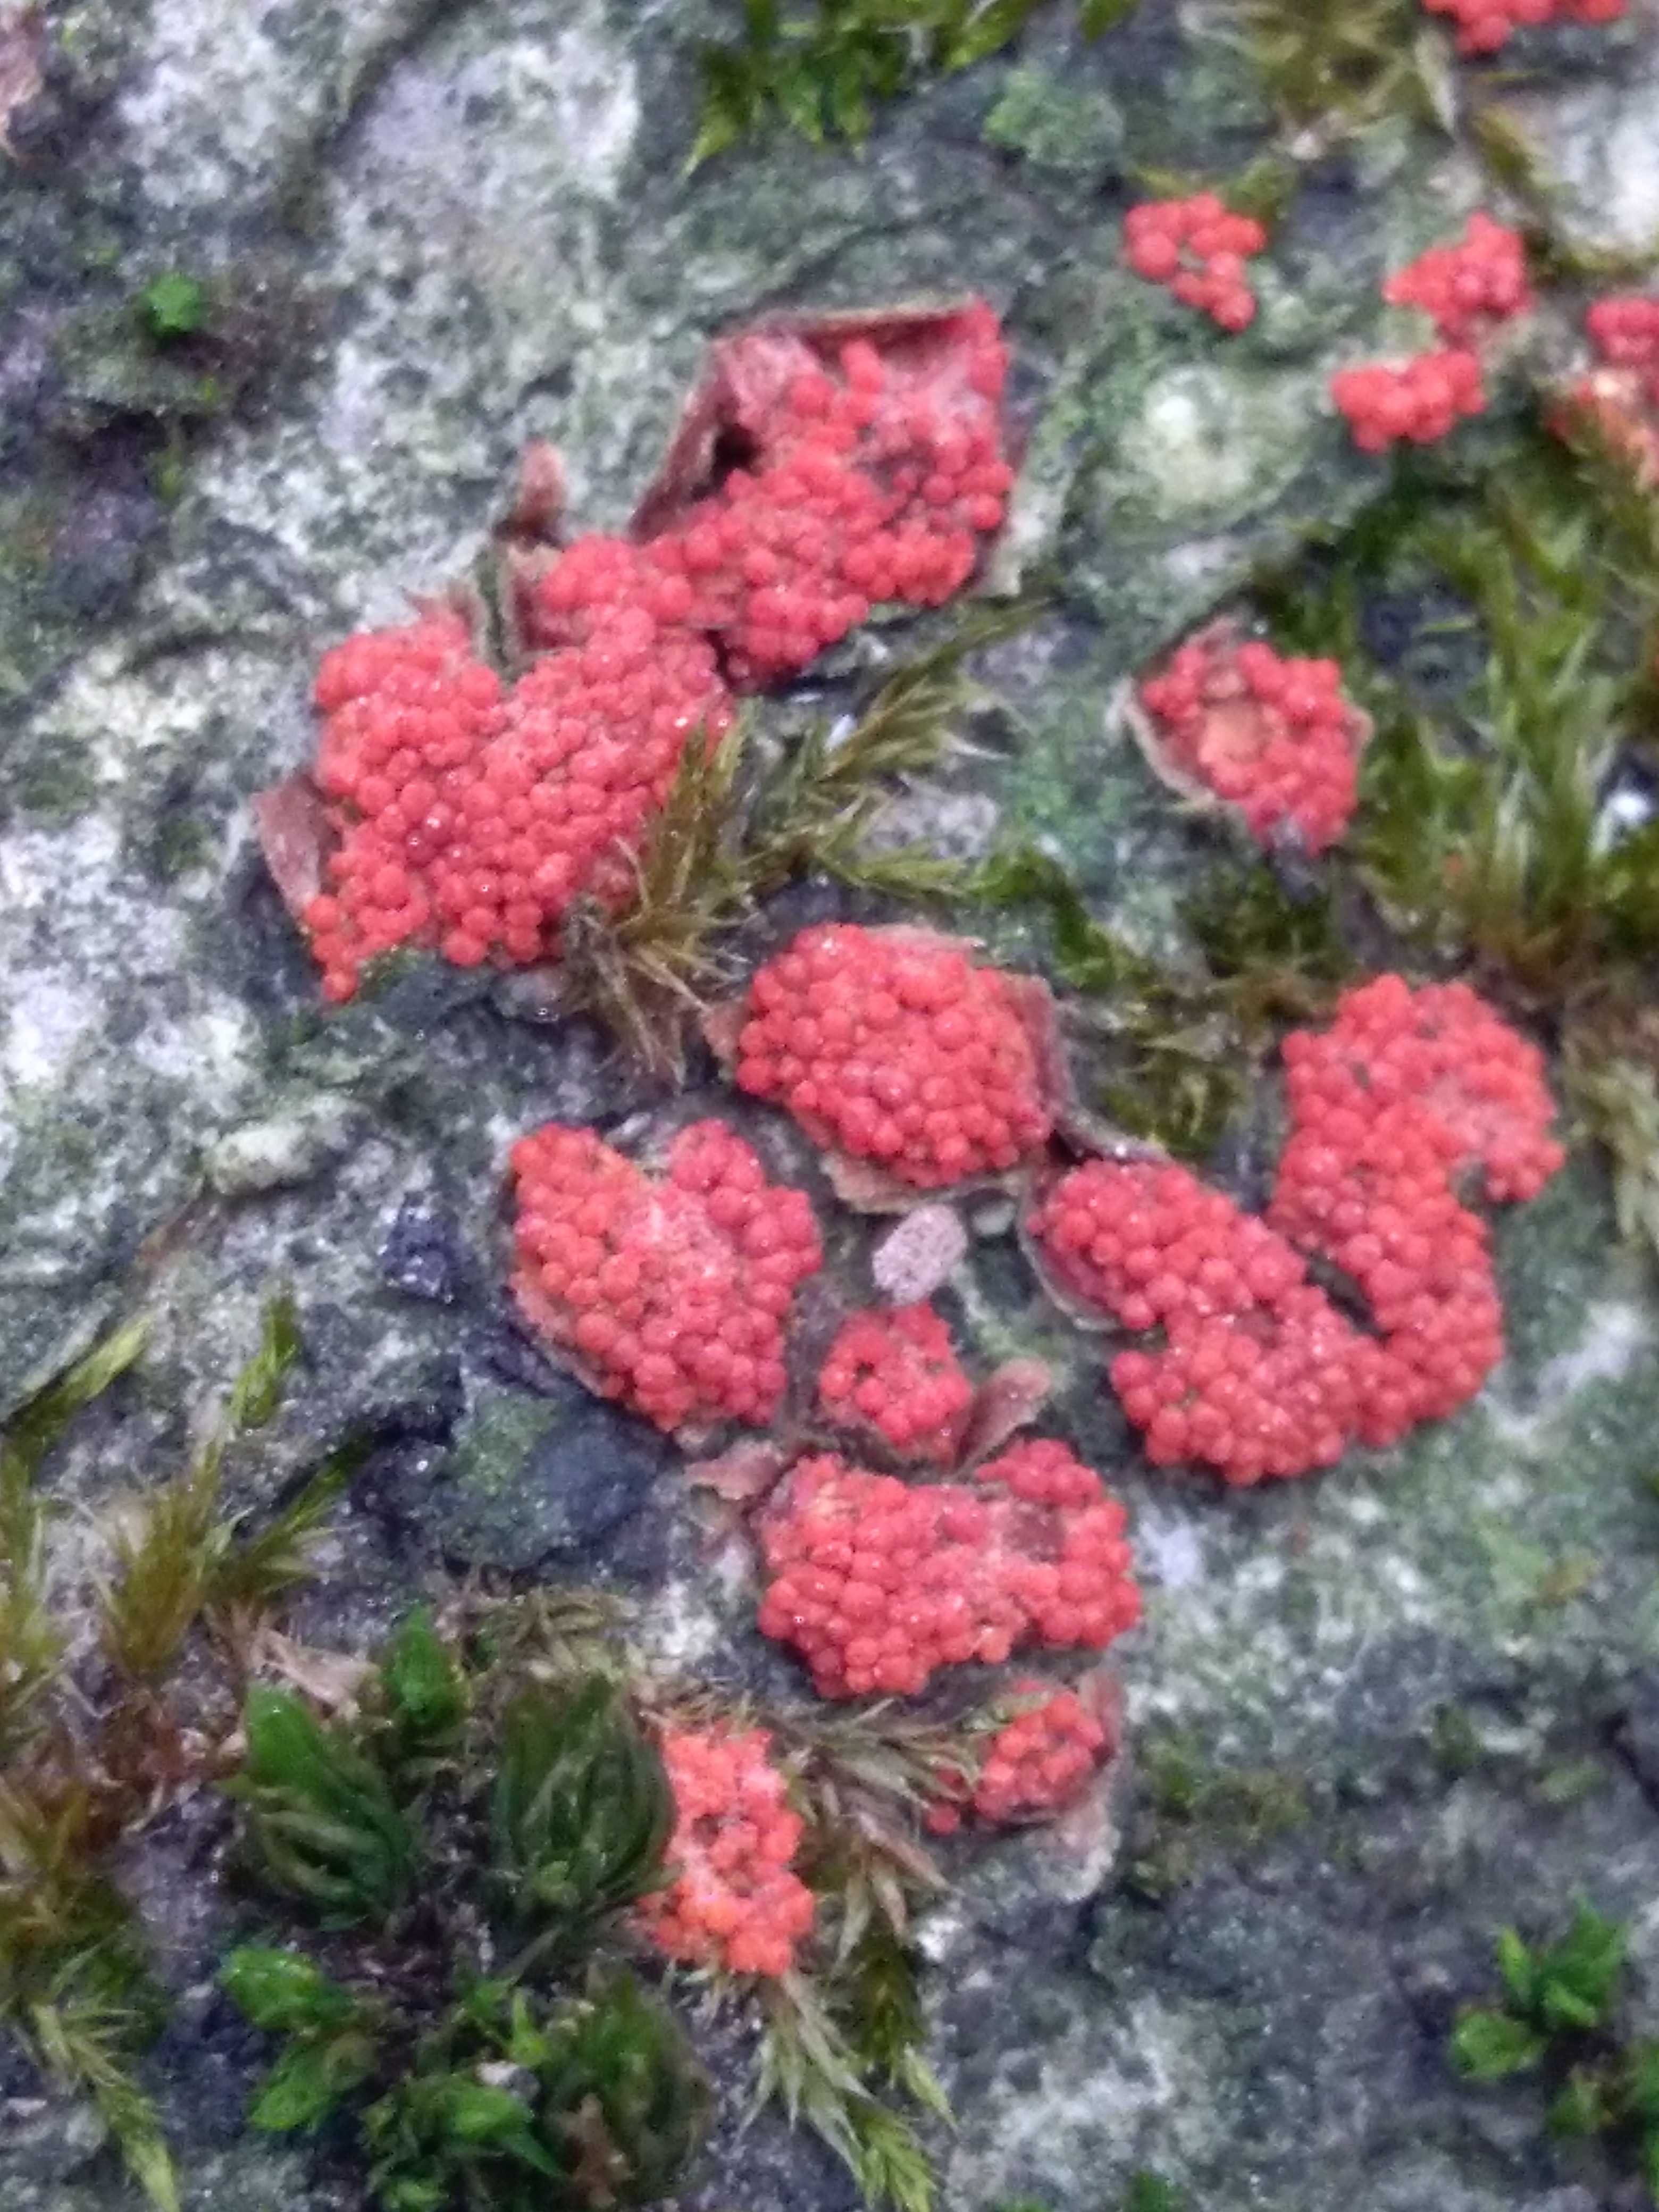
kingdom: Fungi
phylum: Ascomycota
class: Sordariomycetes
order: Hypocreales
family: Nectriaceae
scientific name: Nectriaceae
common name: cinnobersvampfamilien
